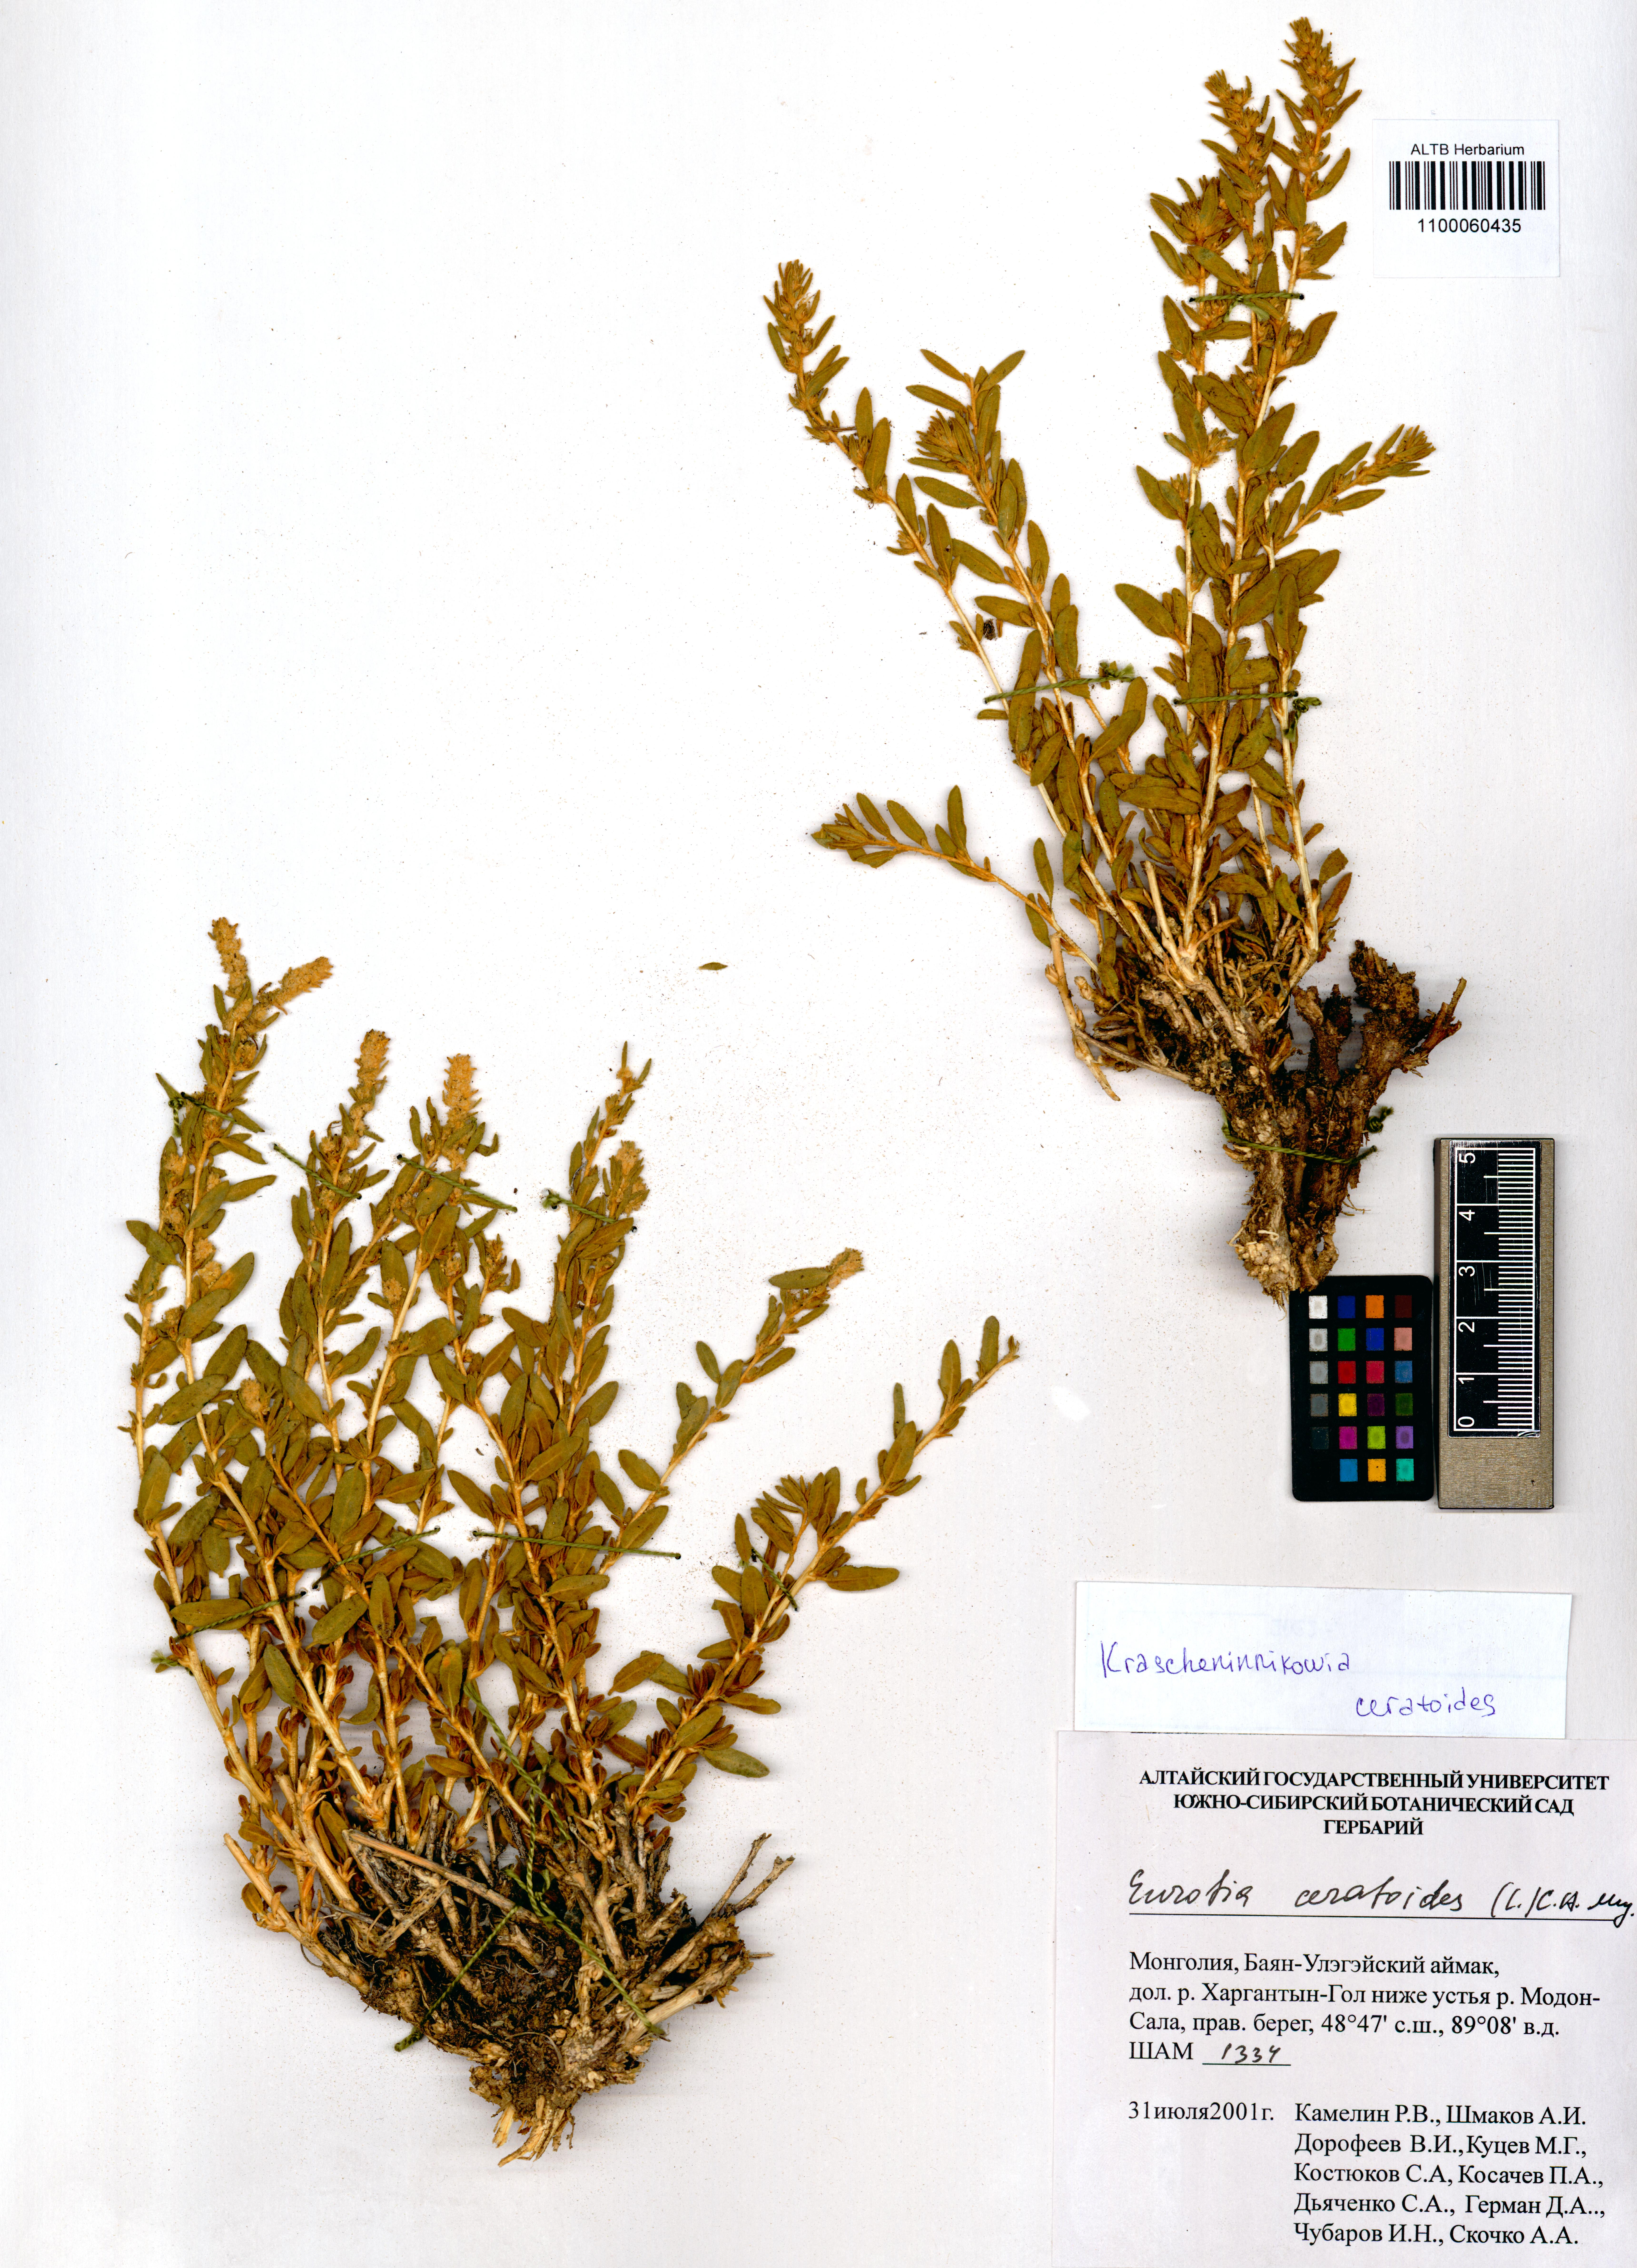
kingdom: Plantae
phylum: Tracheophyta
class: Magnoliopsida
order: Caryophyllales
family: Amaranthaceae
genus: Krascheninnikovia
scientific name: Krascheninnikovia ceratoides
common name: Pamirian winterfat
